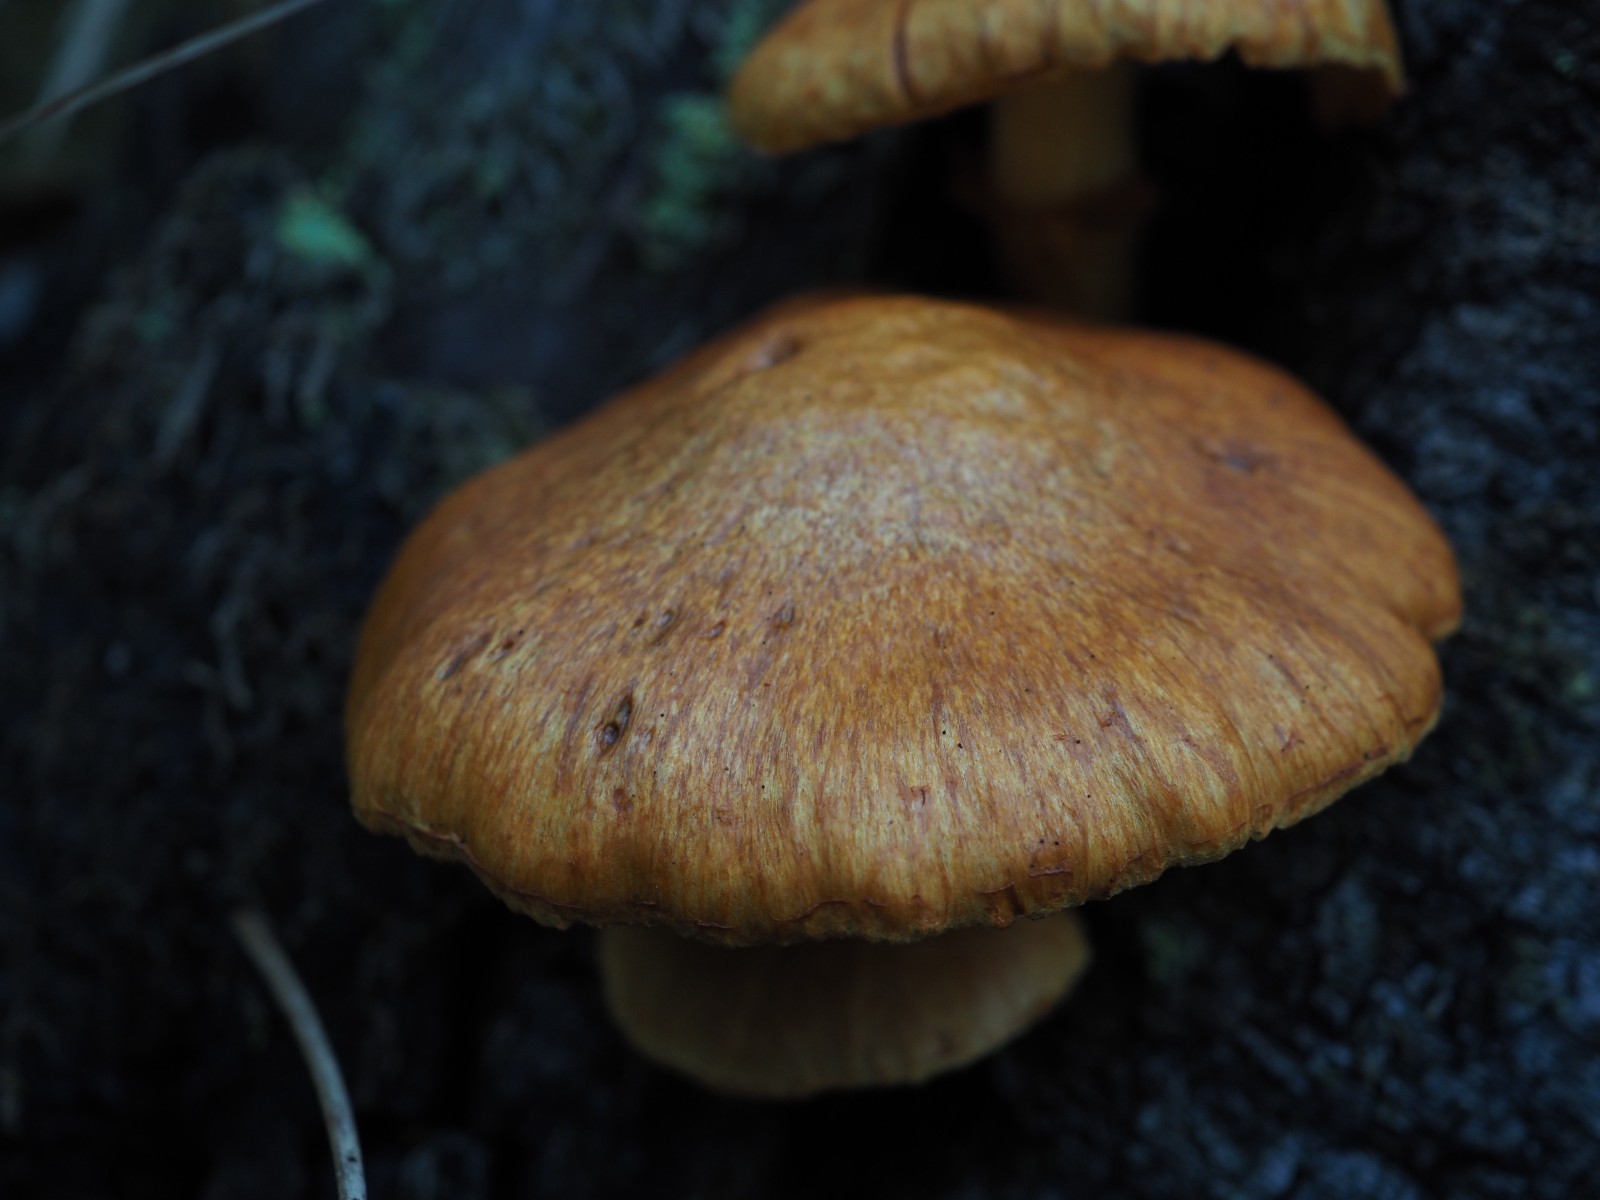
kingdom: Fungi
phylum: Basidiomycota
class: Agaricomycetes
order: Agaricales
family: Hymenogastraceae
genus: Gymnopilus
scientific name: Gymnopilus spectabilis
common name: fibret flammehat
